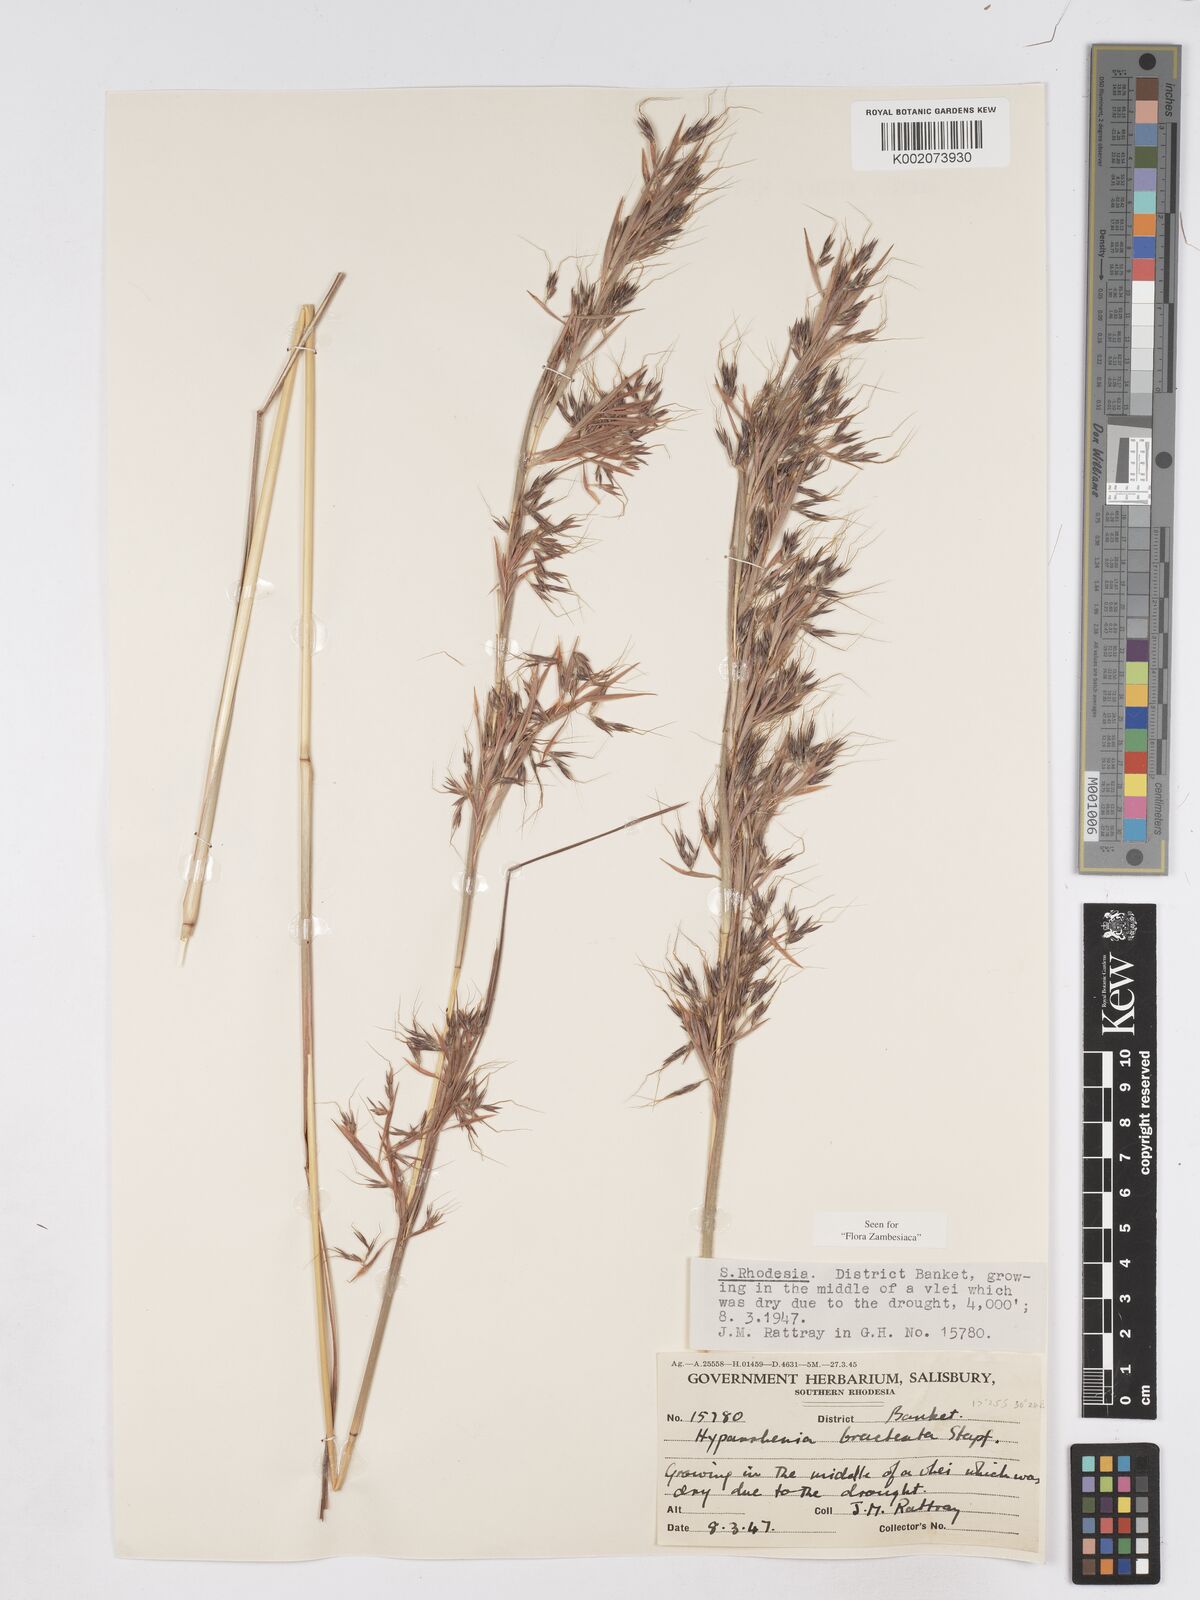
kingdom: Plantae
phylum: Tracheophyta
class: Liliopsida
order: Poales
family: Poaceae
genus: Hyparrhenia
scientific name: Hyparrhenia bracteata
